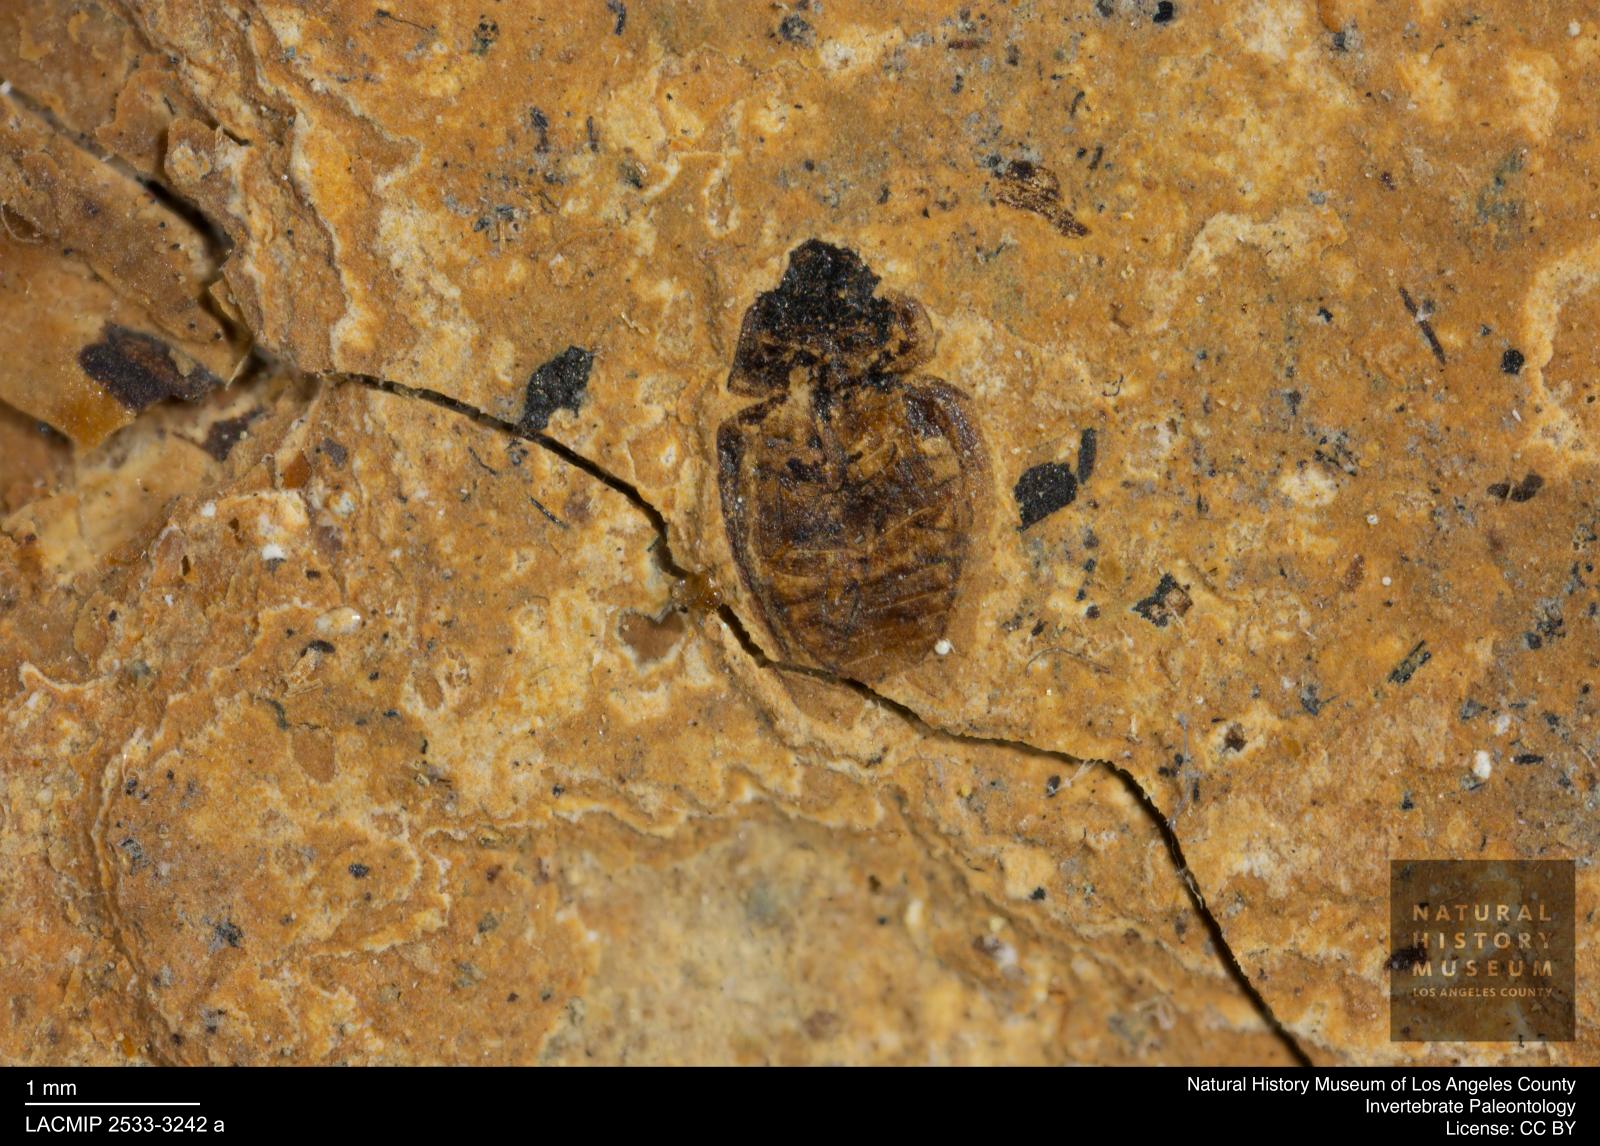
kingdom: Animalia
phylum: Arthropoda
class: Insecta
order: Coleoptera
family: Hydrophilidae
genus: Paracymus
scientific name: Paracymus excitatus
